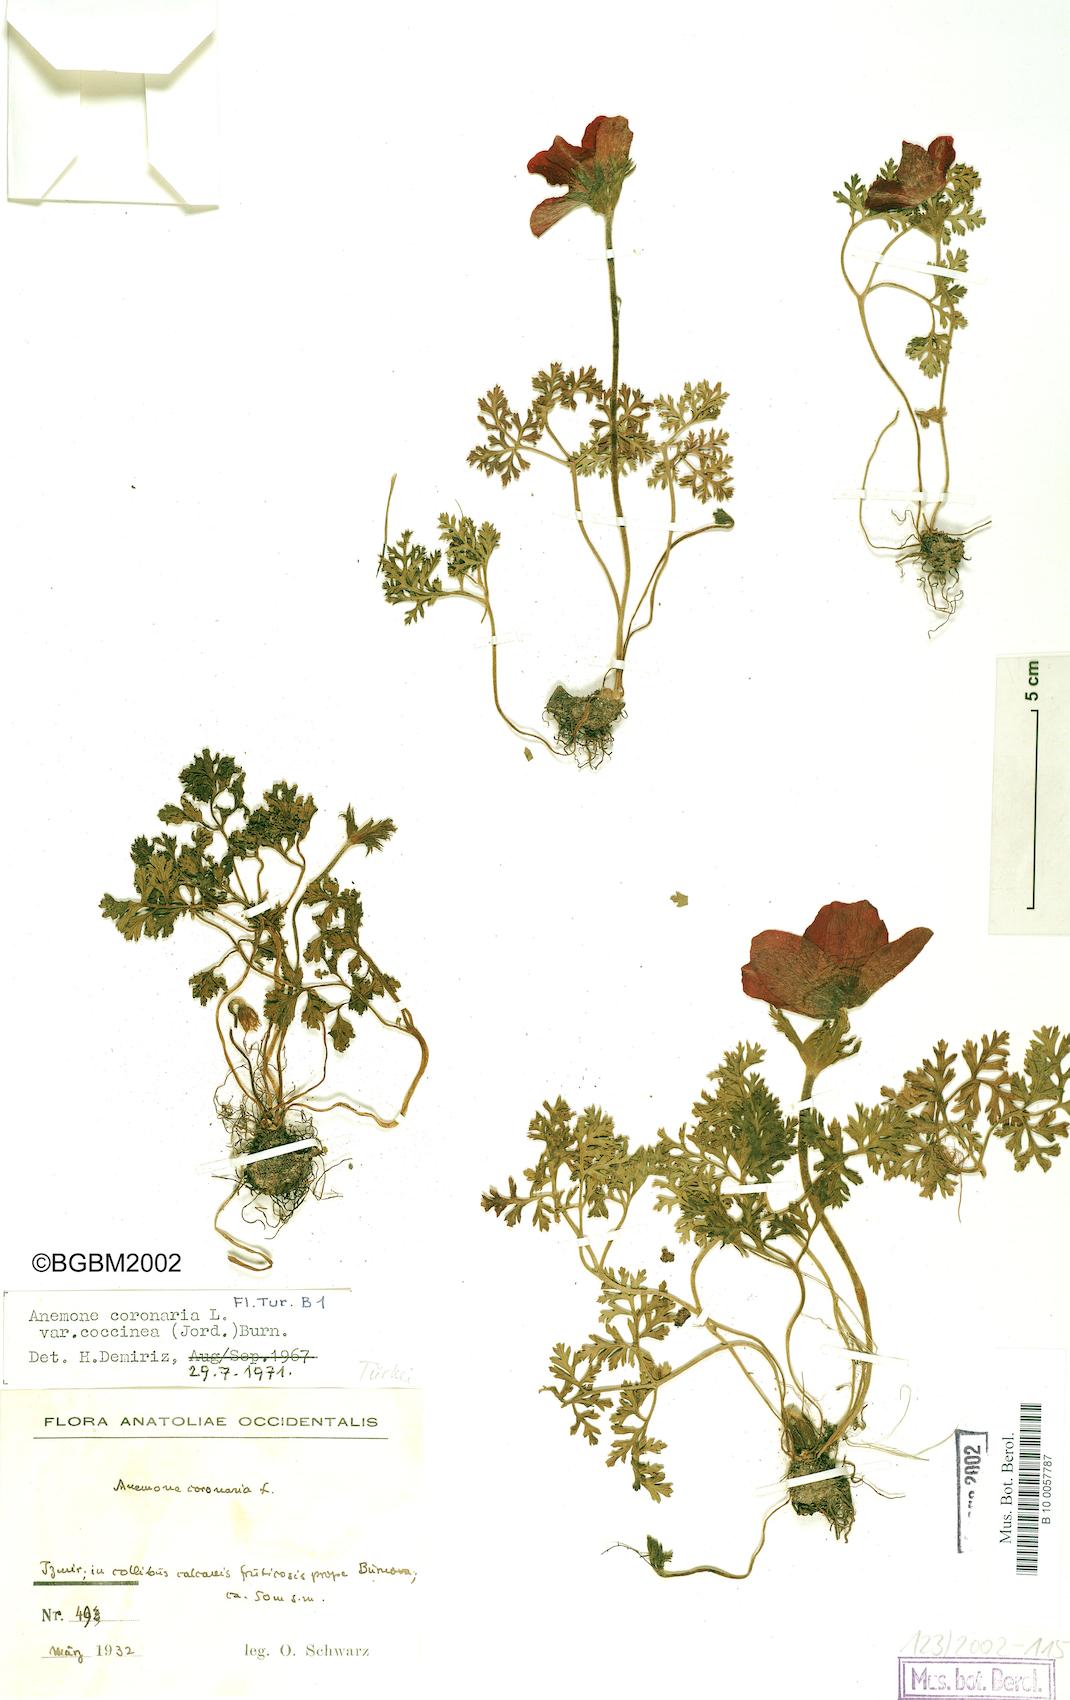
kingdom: Plantae
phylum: Tracheophyta
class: Magnoliopsida
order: Ranunculales
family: Ranunculaceae
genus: Anemone
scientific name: Anemone coronaria
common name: Poppy anemone
